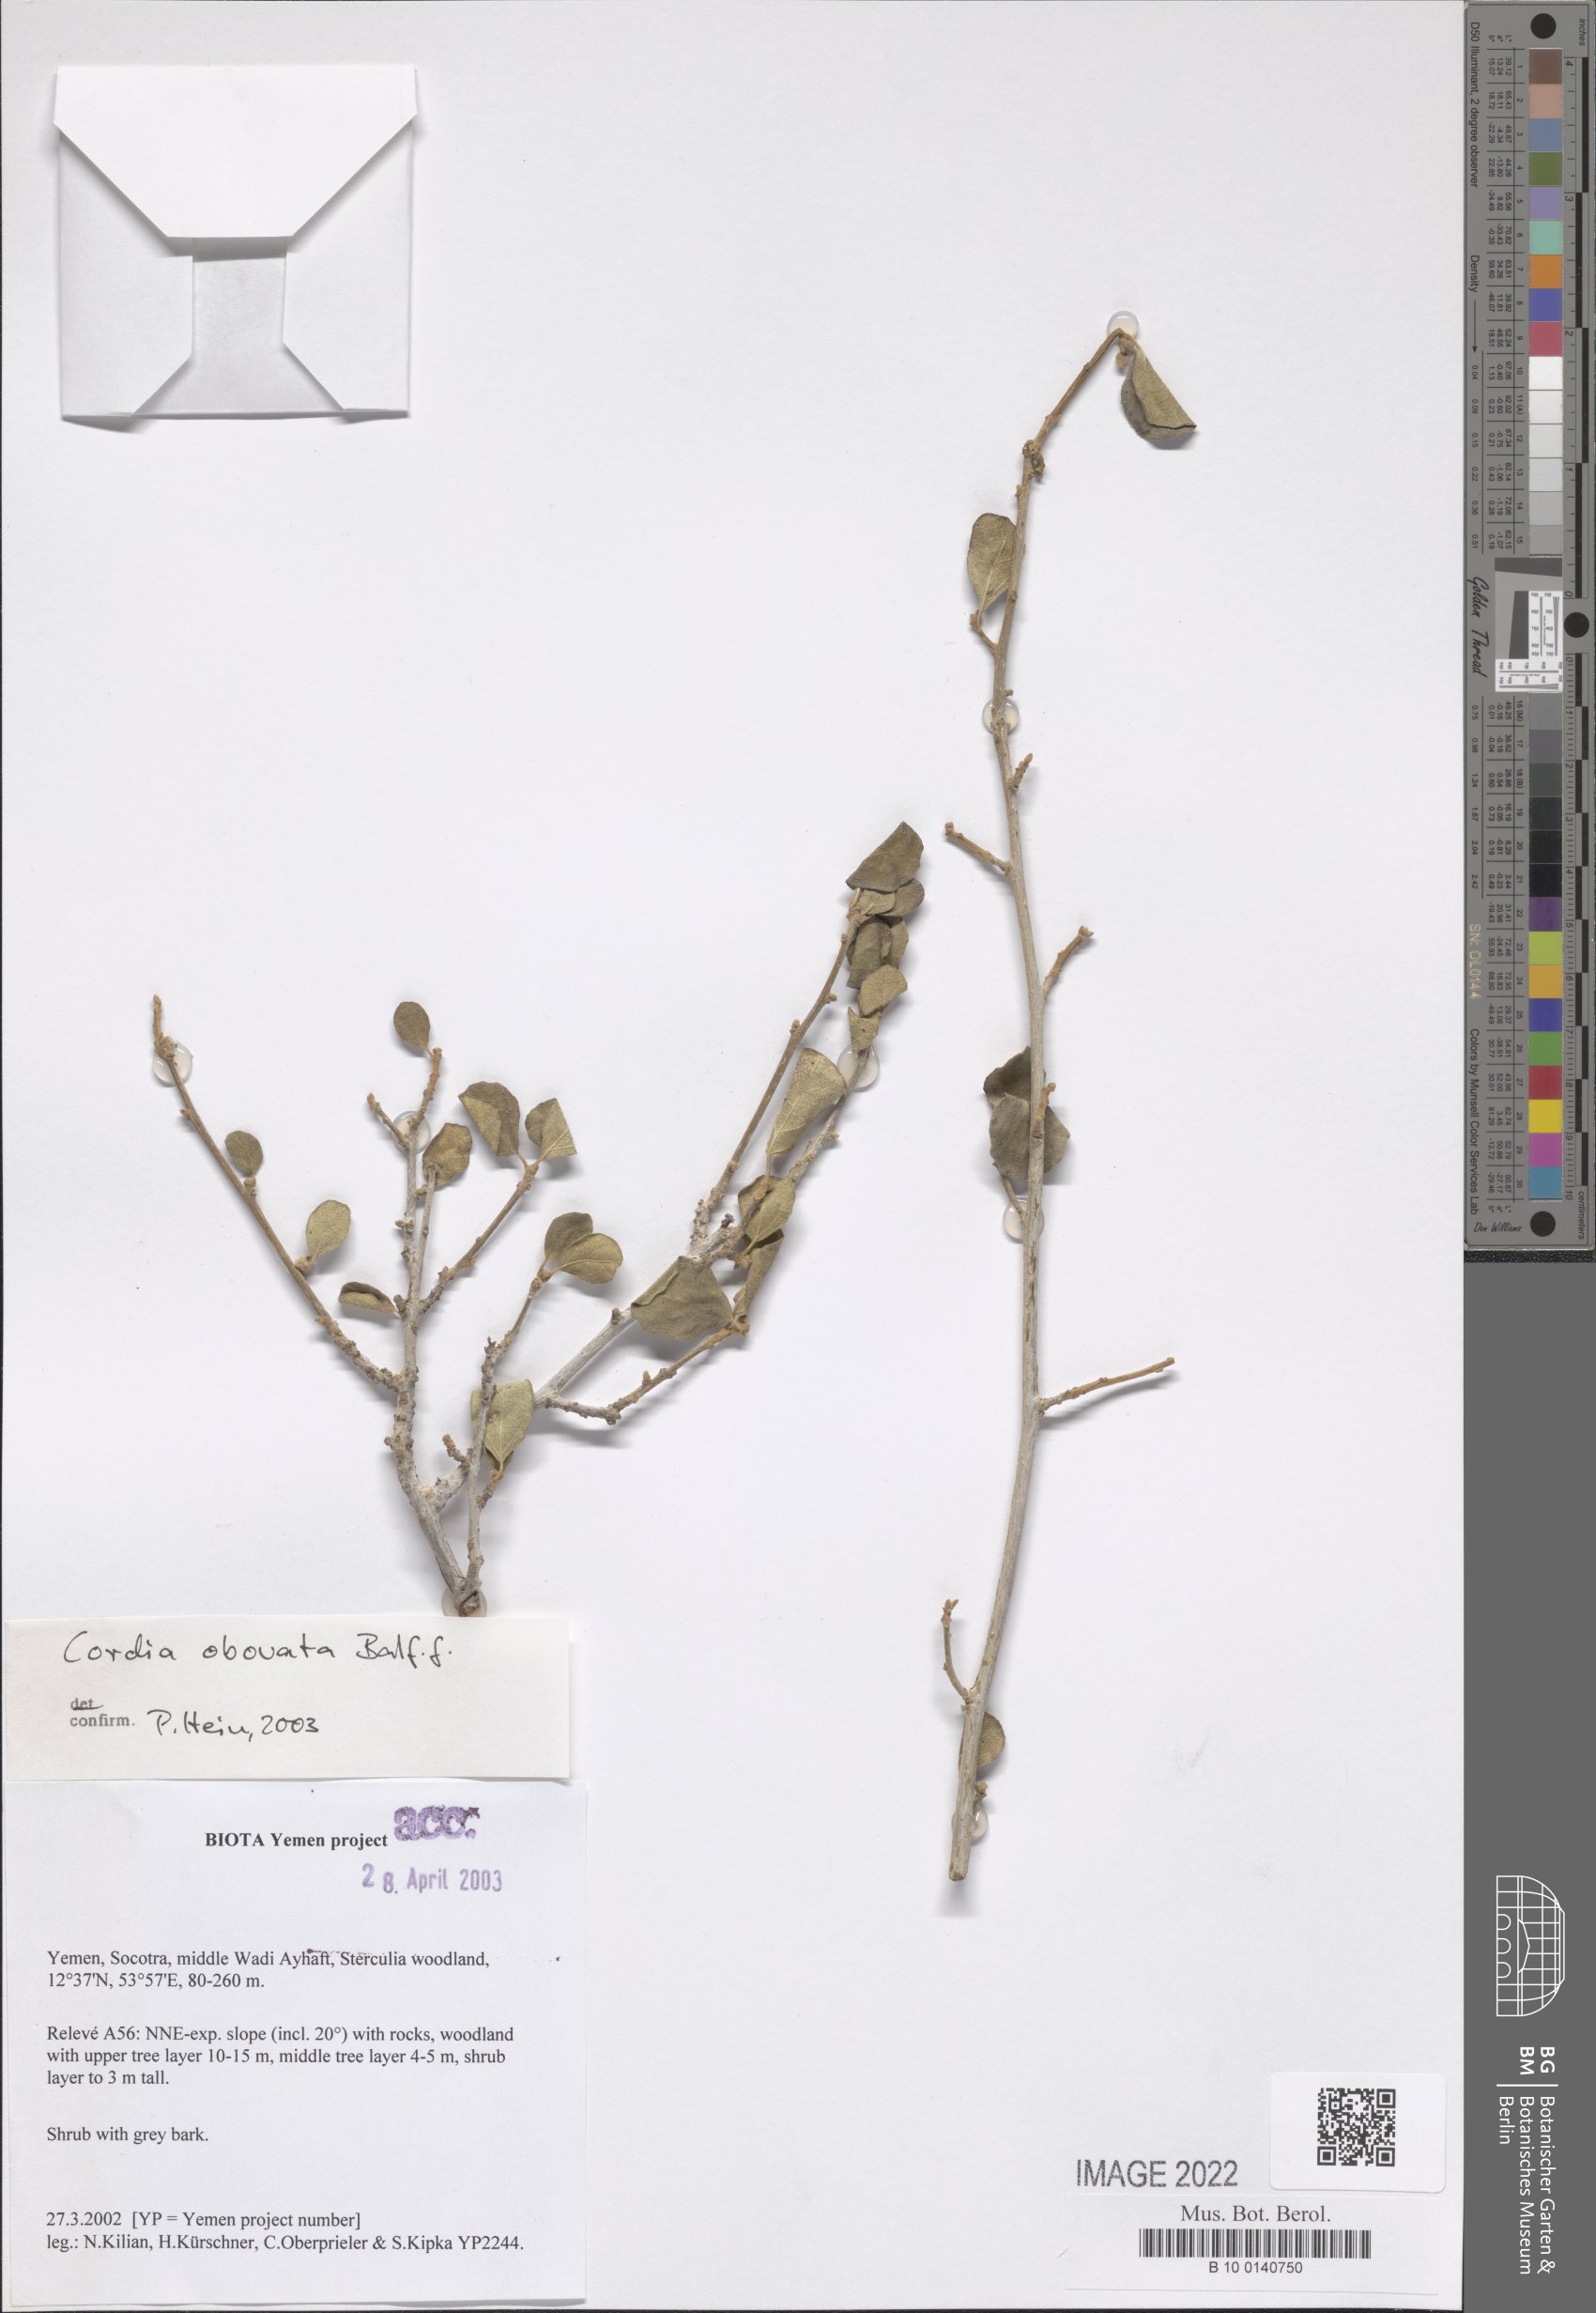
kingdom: Plantae
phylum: Tracheophyta
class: Magnoliopsida
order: Boraginales
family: Cordiaceae
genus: Cordia
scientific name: Cordia obovata
